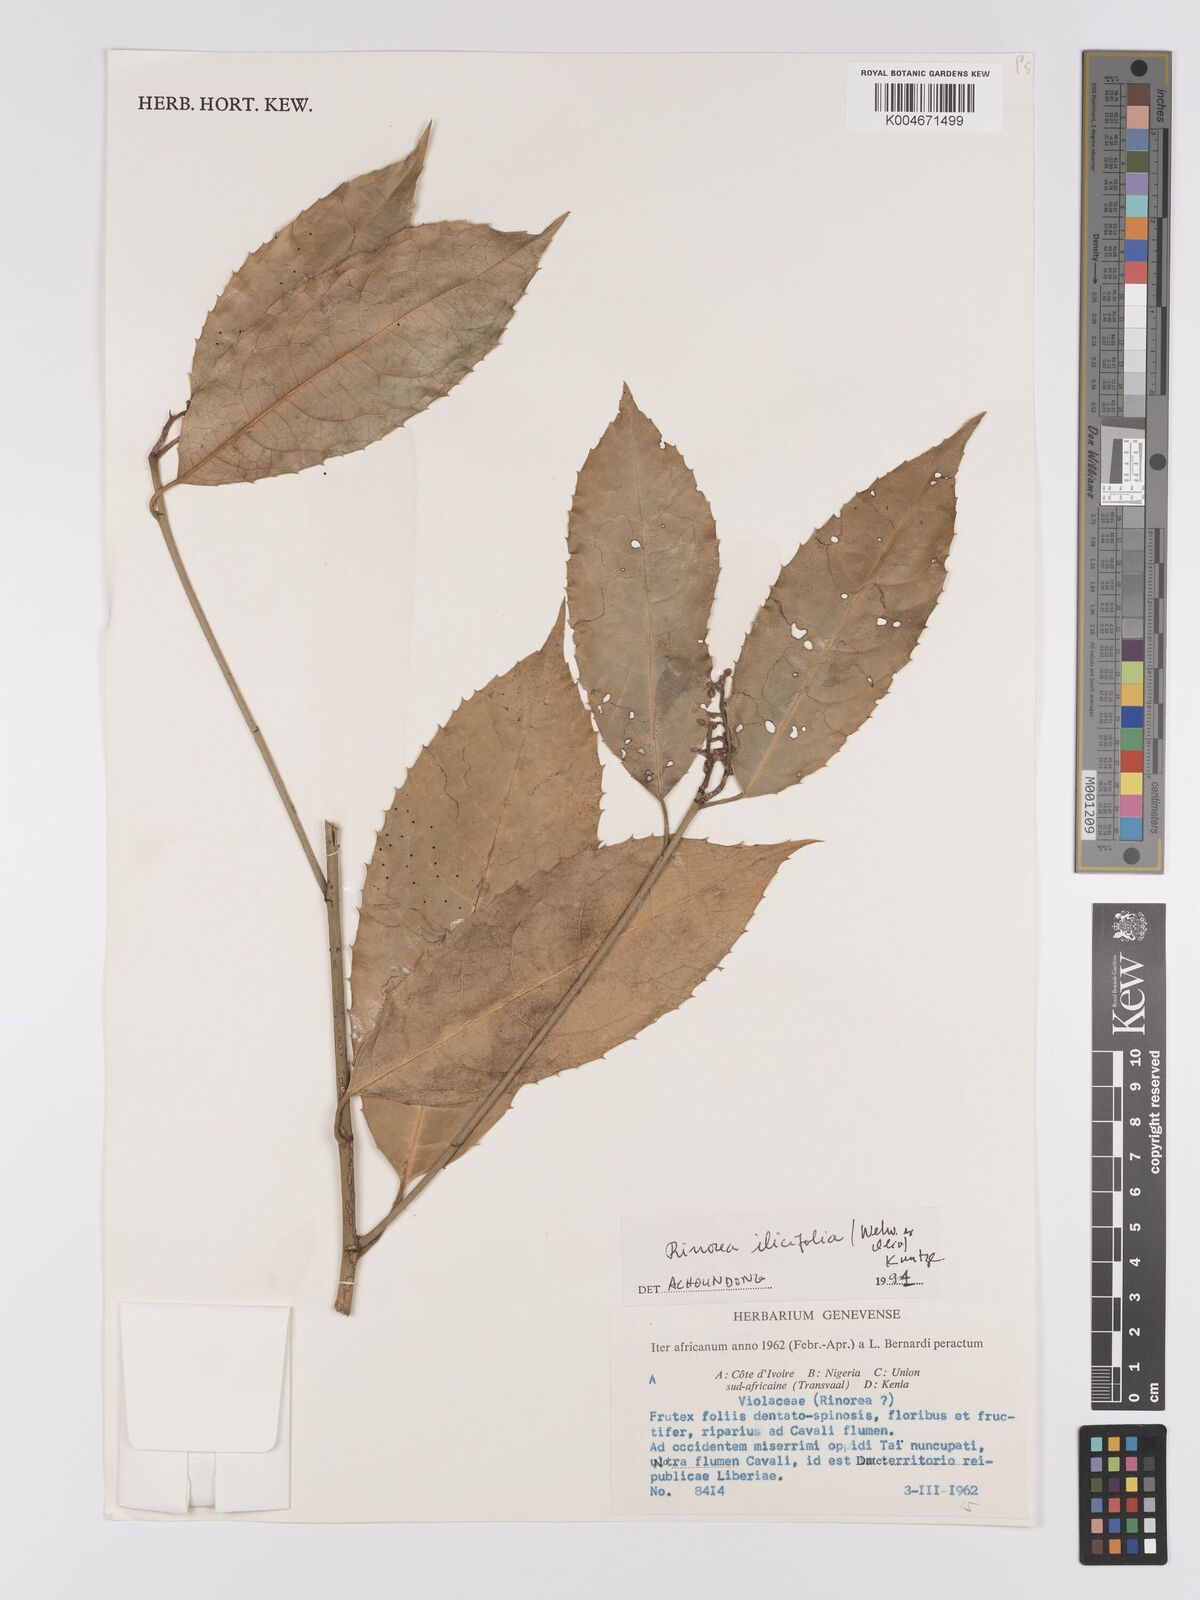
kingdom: Plantae
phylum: Tracheophyta
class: Magnoliopsida
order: Malpighiales
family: Violaceae
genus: Rinorea
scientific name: Rinorea ilicifolia
